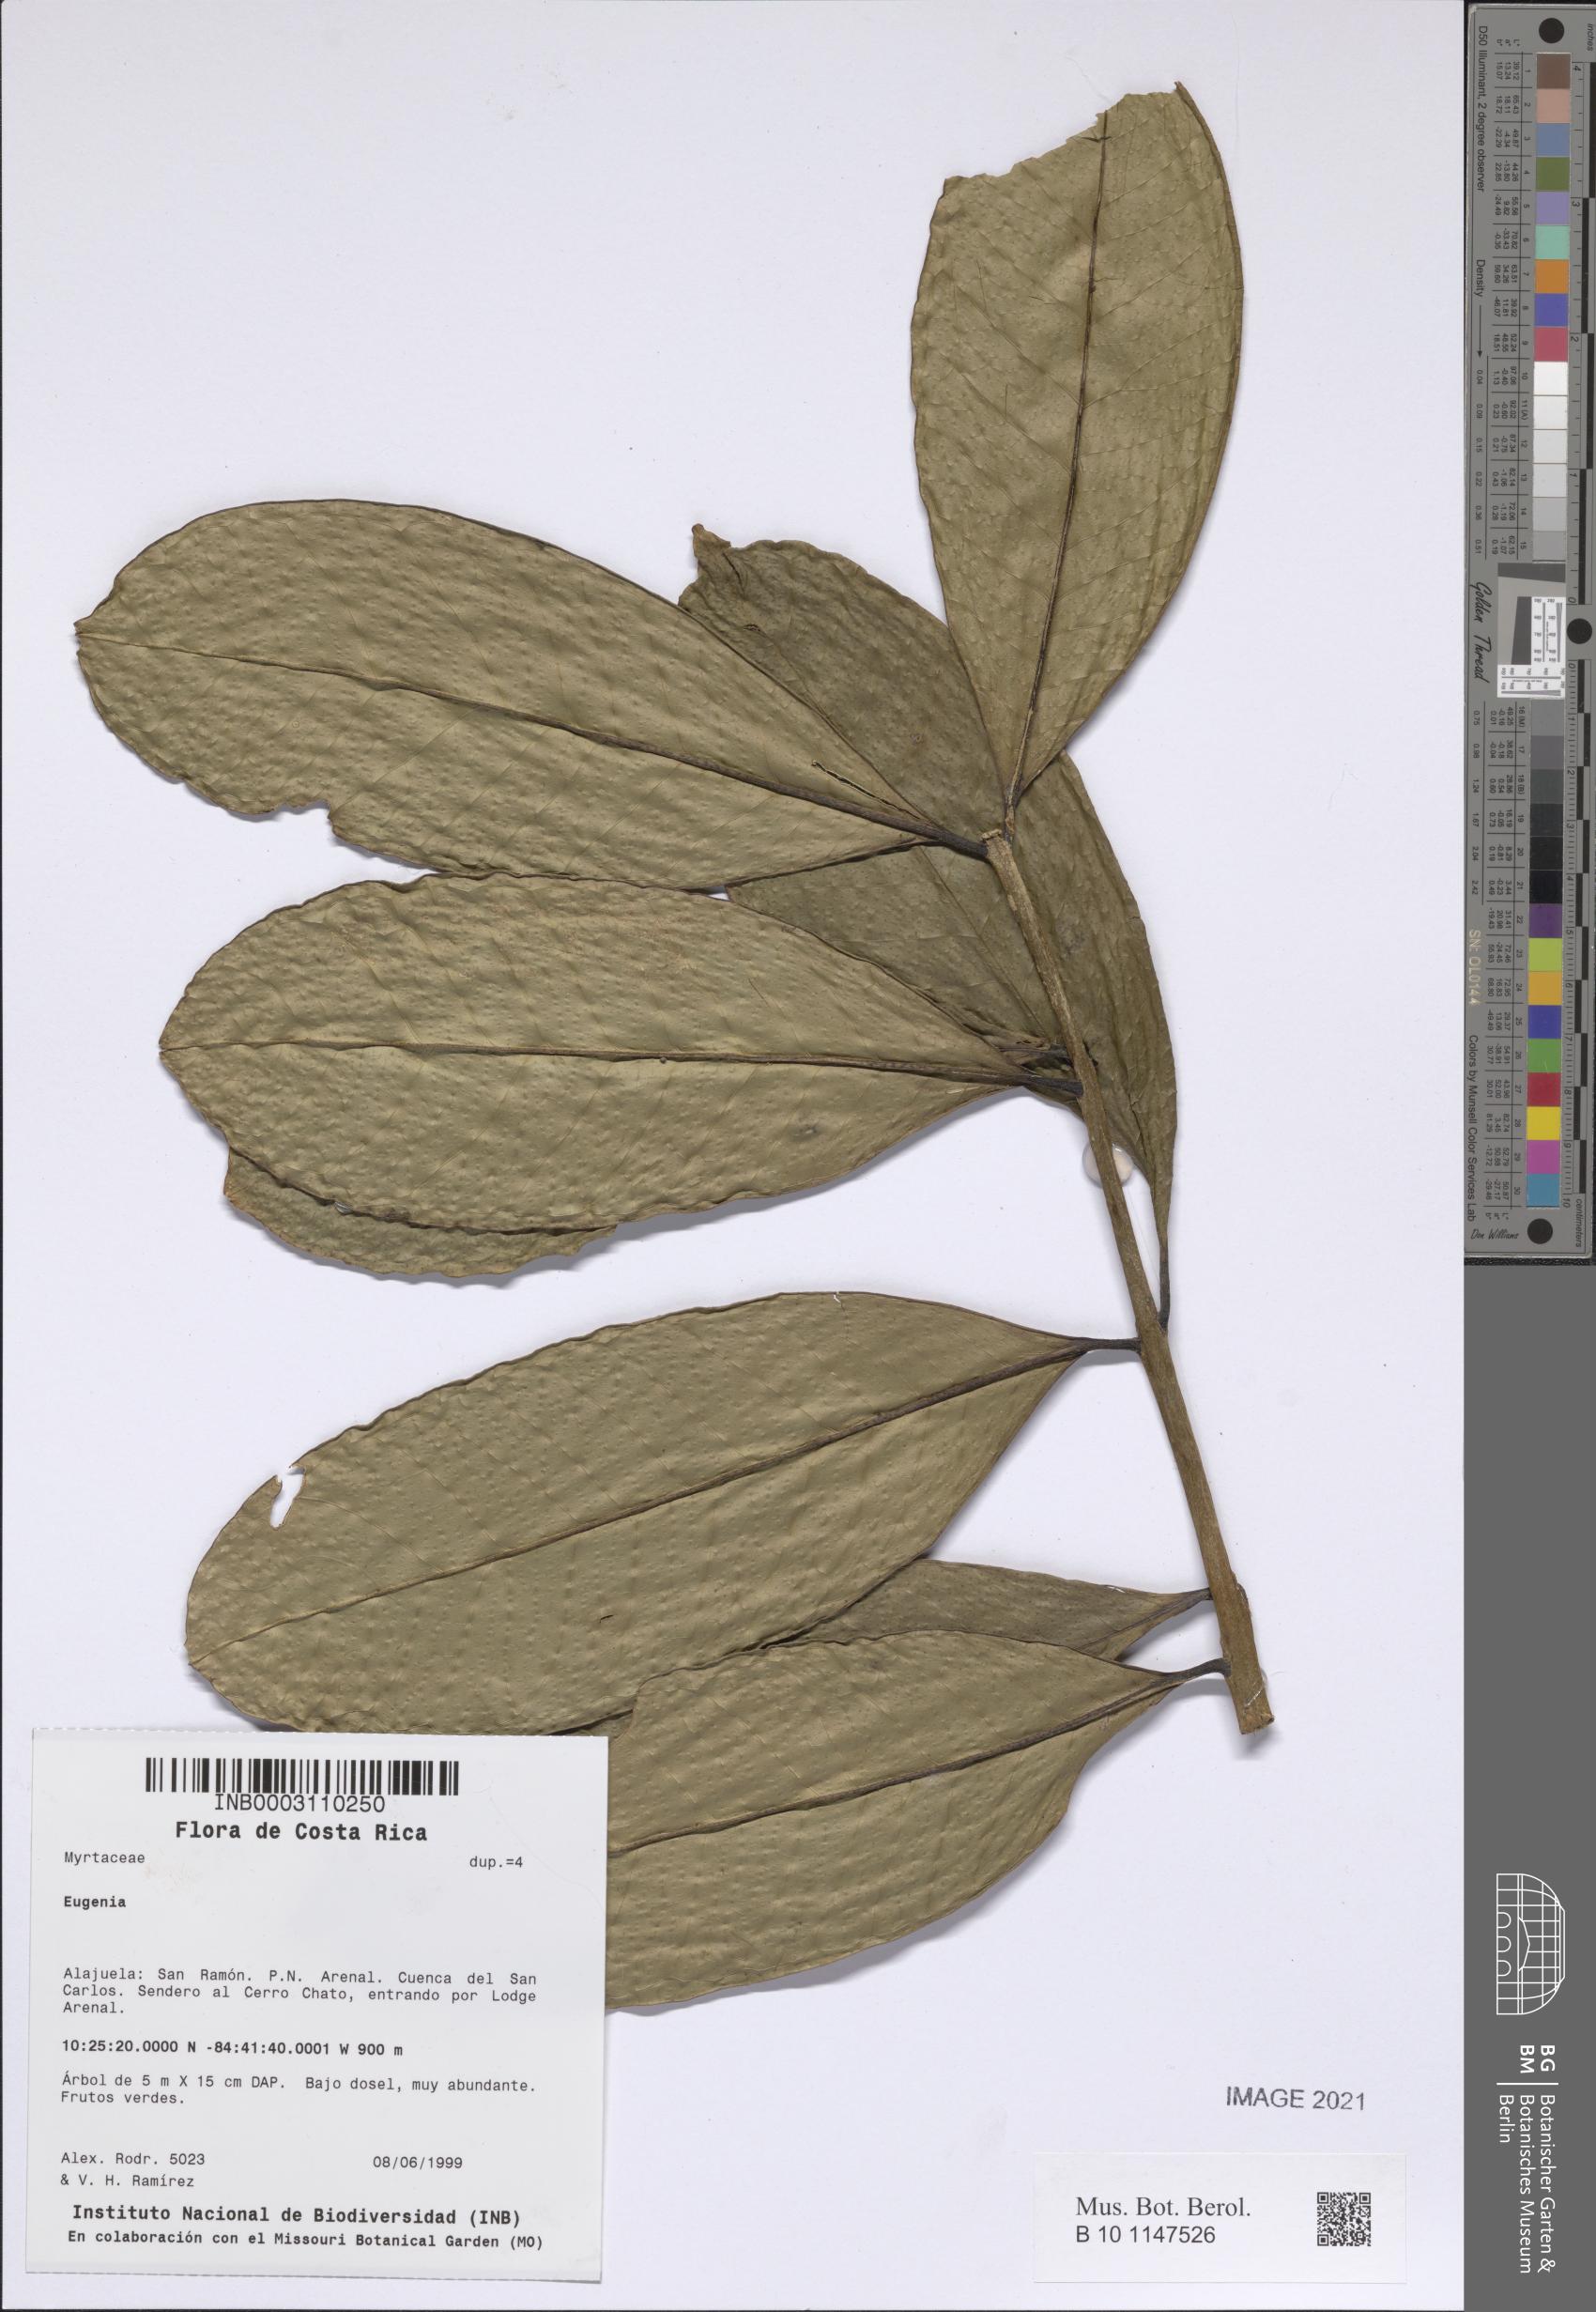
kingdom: Plantae
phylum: Tracheophyta
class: Magnoliopsida
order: Myrtales
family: Myrtaceae
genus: Eugenia
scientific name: Eugenia
